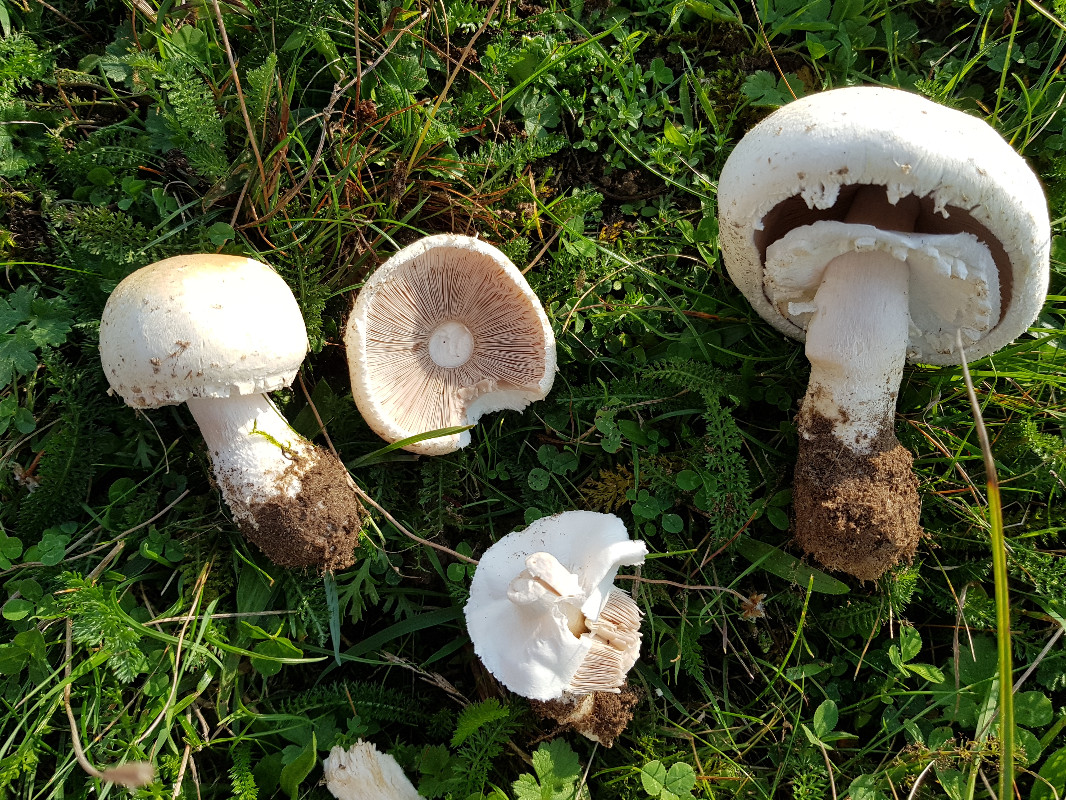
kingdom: Fungi
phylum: Basidiomycota
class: Agaricomycetes
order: Agaricales
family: Agaricaceae
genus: Agaricus
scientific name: Agaricus
